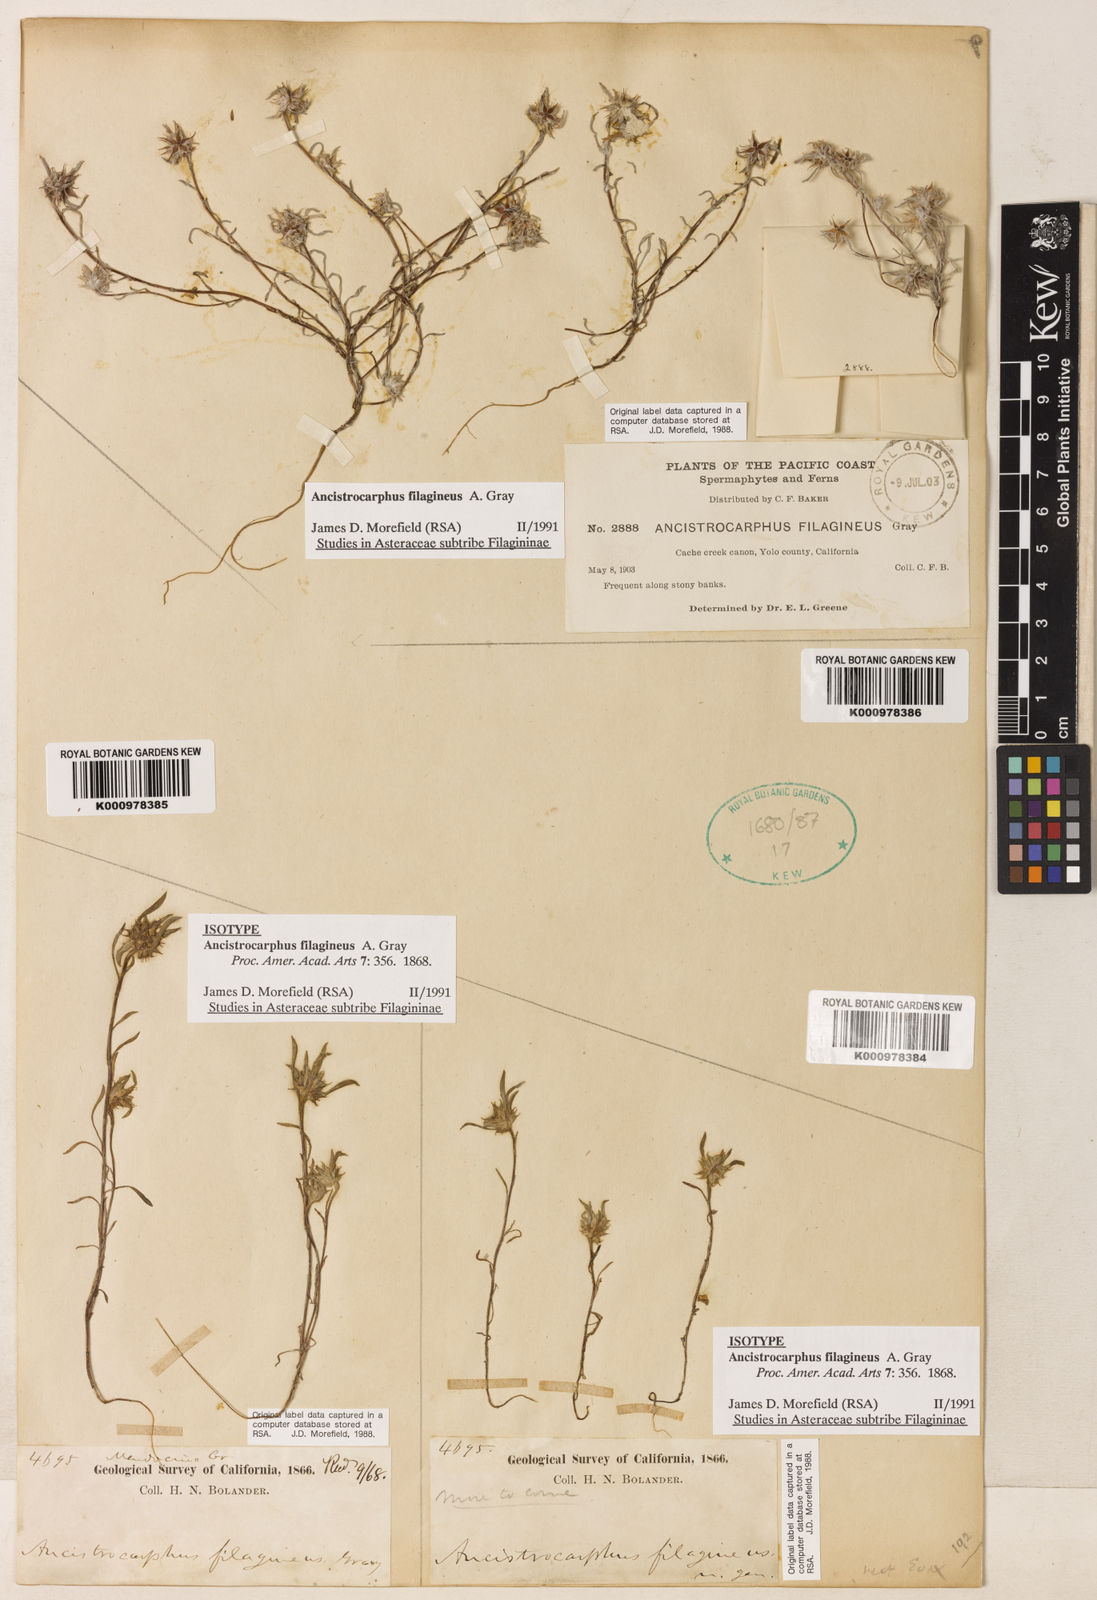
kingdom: Plantae
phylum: Tracheophyta
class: Magnoliopsida
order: Asterales
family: Asteraceae
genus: Ancistrocarphus
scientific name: Ancistrocarphus filagineus
